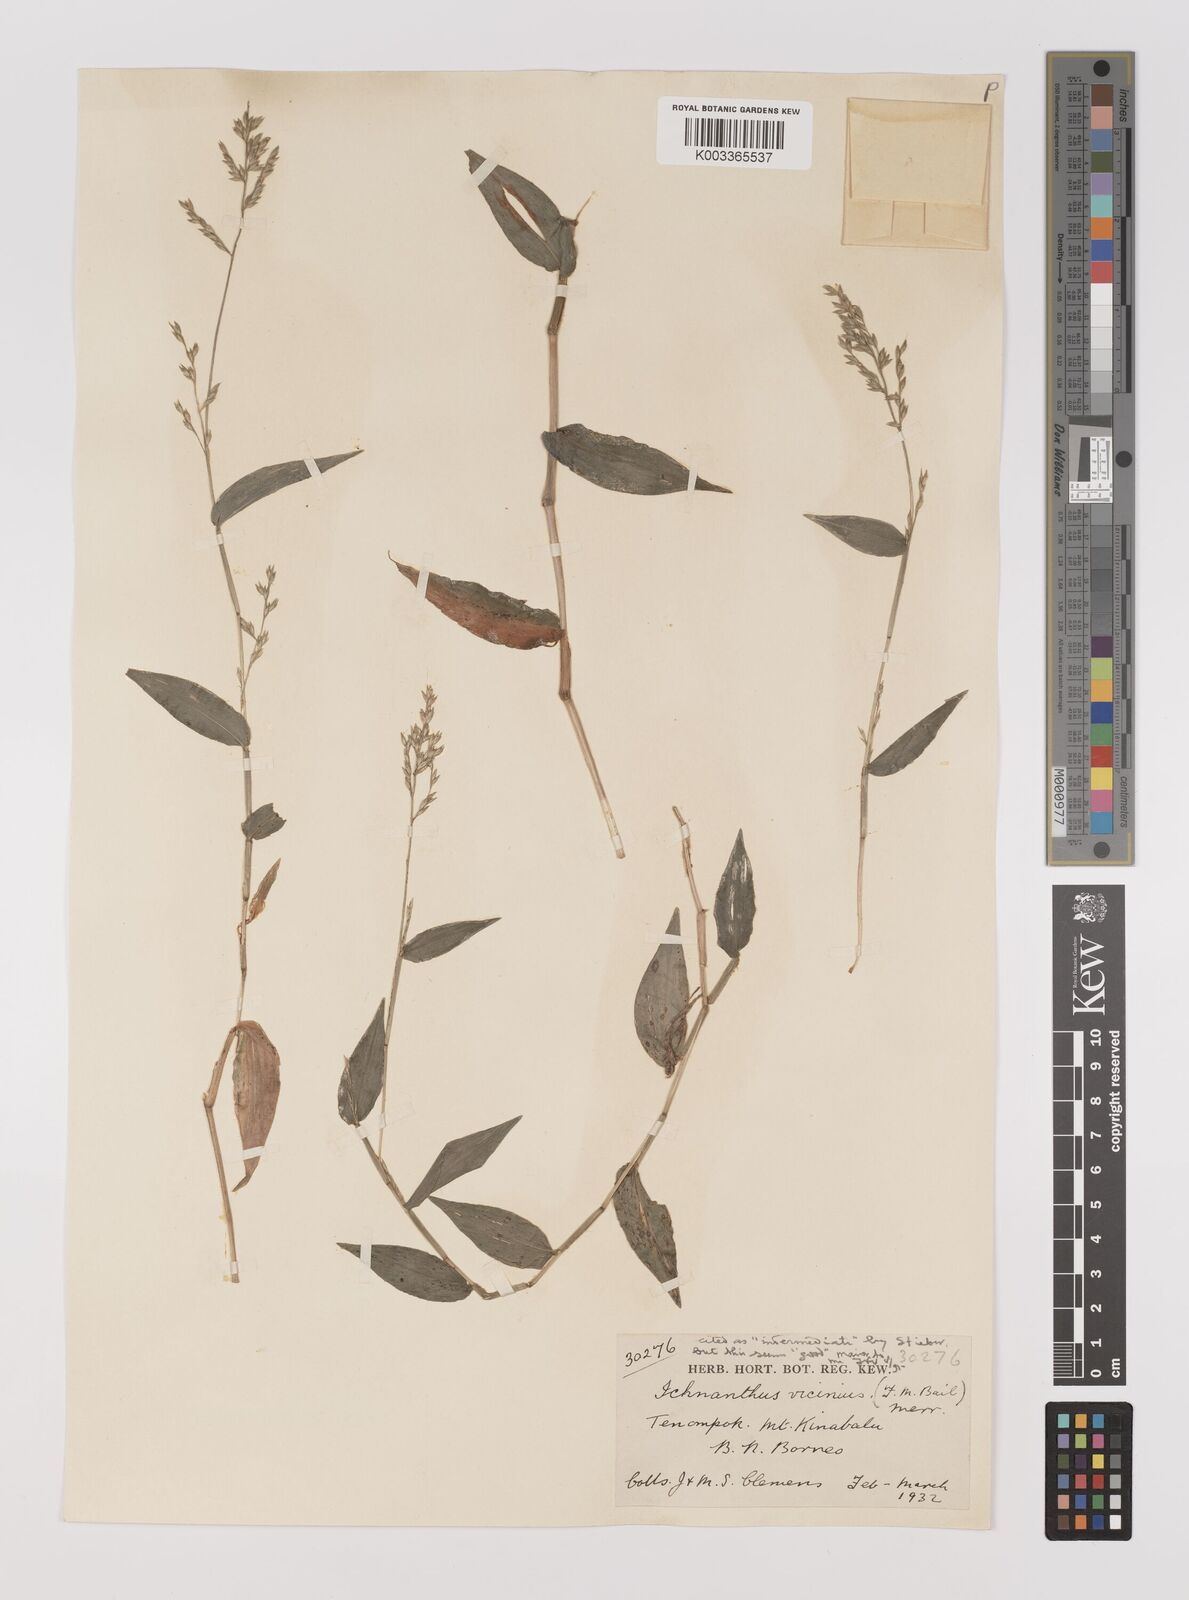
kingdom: Plantae
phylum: Tracheophyta
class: Liliopsida
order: Poales
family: Poaceae
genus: Ichnanthus
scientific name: Ichnanthus pallens
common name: Water grass
